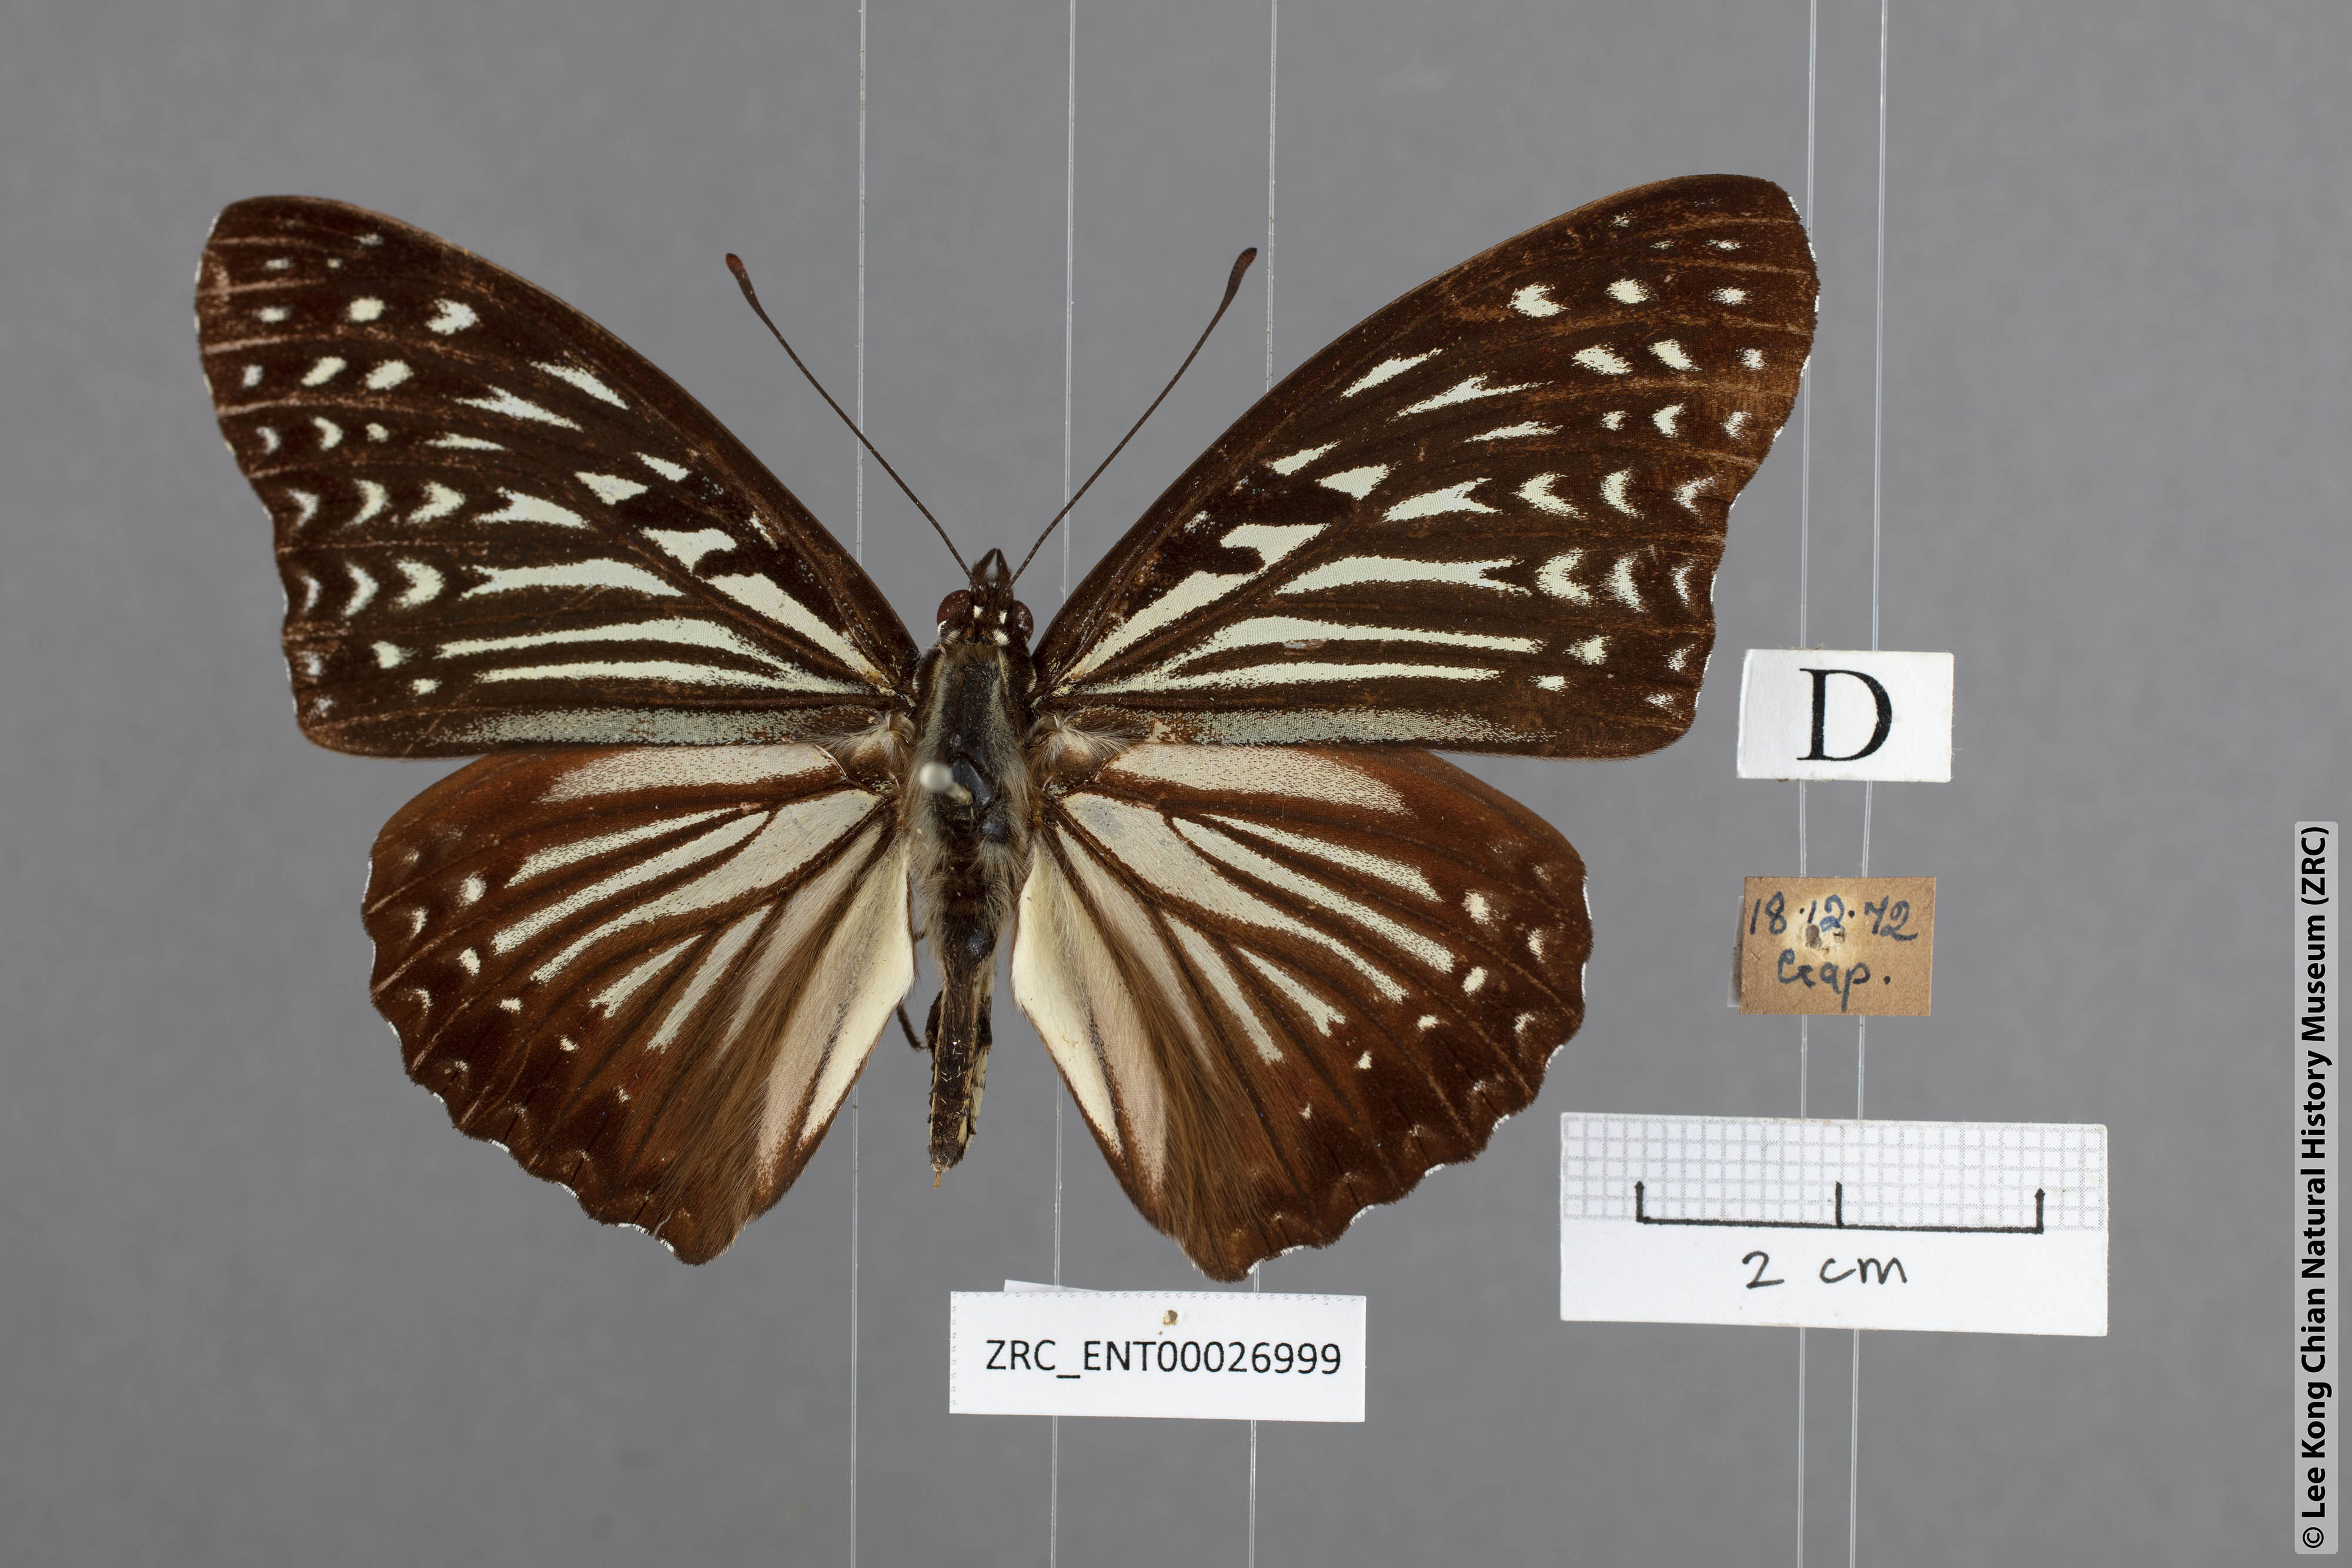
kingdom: Animalia
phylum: Arthropoda
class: Insecta
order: Lepidoptera
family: Nymphalidae
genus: Hestinalis
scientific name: Hestinalis mimetica
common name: Malayan circe
